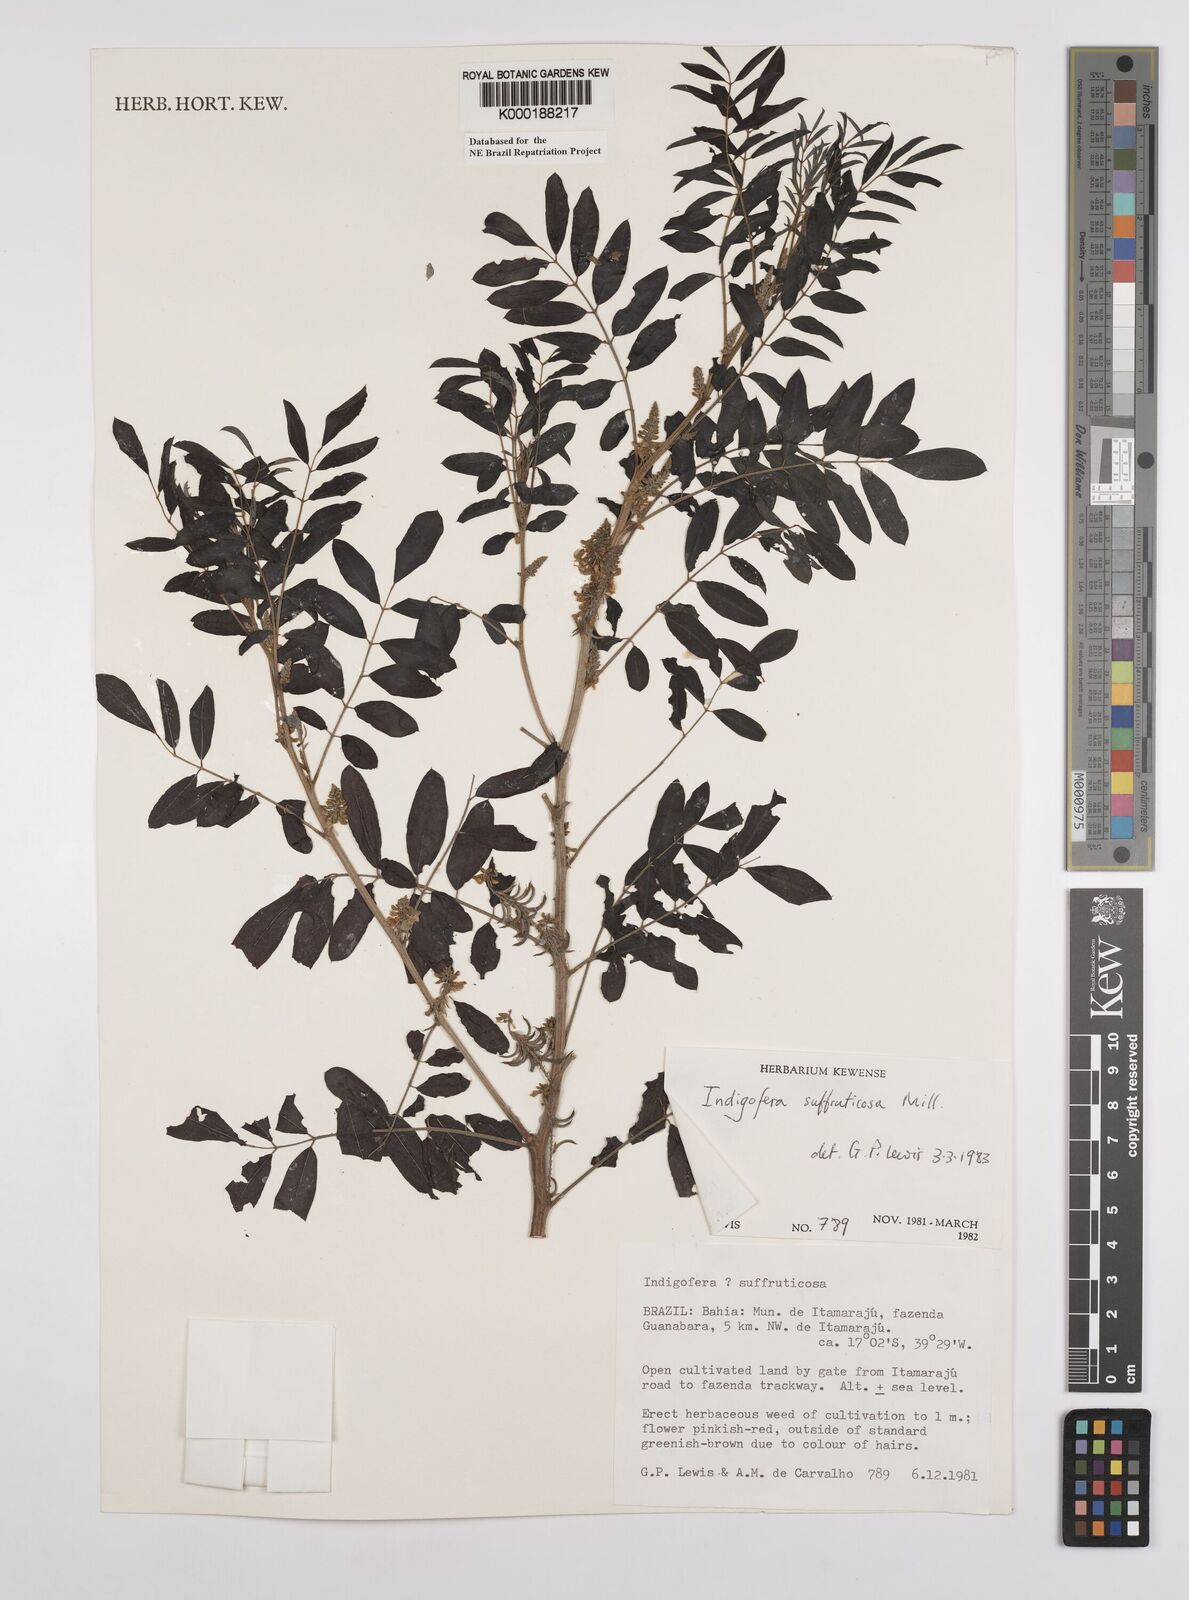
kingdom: Plantae
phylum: Tracheophyta
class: Magnoliopsida
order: Fabales
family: Fabaceae
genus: Indigofera
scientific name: Indigofera suffruticosa
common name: Anil de pasto
